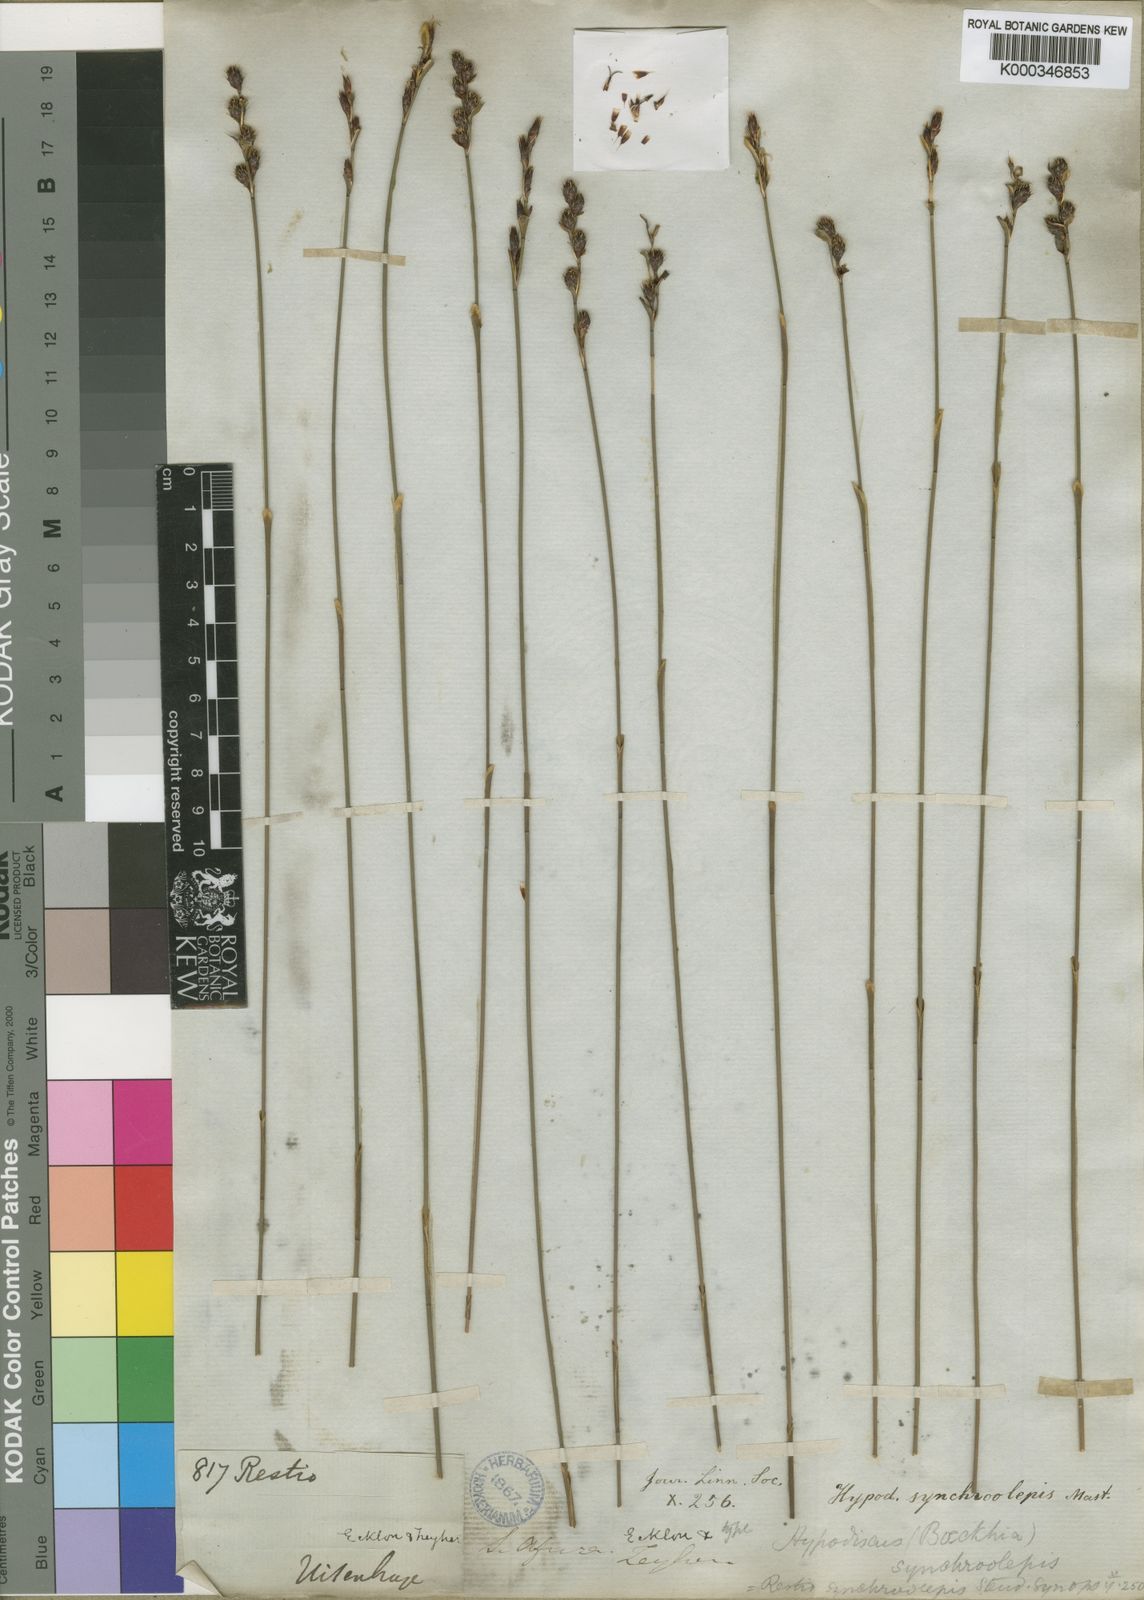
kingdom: Plantae
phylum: Tracheophyta
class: Liliopsida
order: Poales
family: Restionaceae
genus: Hypodiscus
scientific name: Hypodiscus synchroolepis
